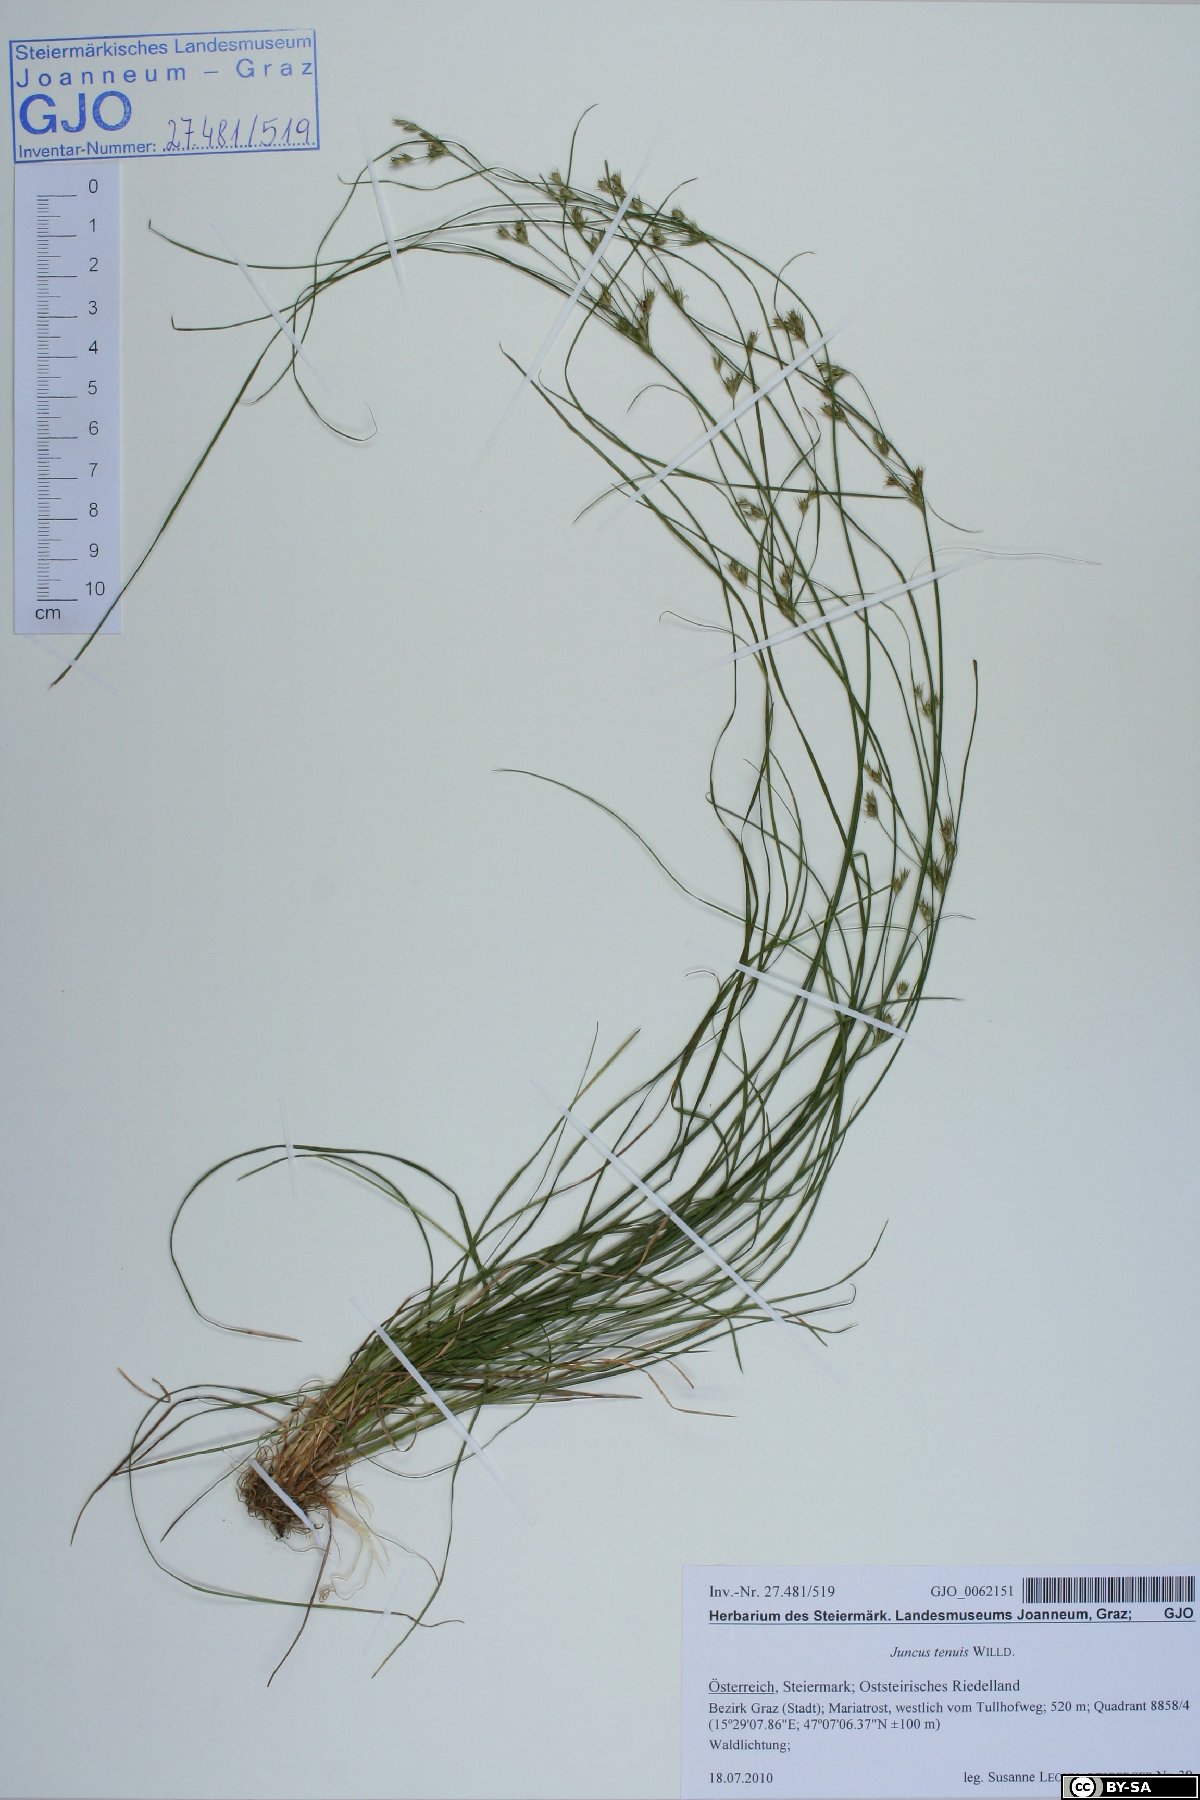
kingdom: Plantae
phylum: Tracheophyta
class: Liliopsida
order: Poales
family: Juncaceae
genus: Juncus
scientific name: Juncus tenuis
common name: Slender rush
